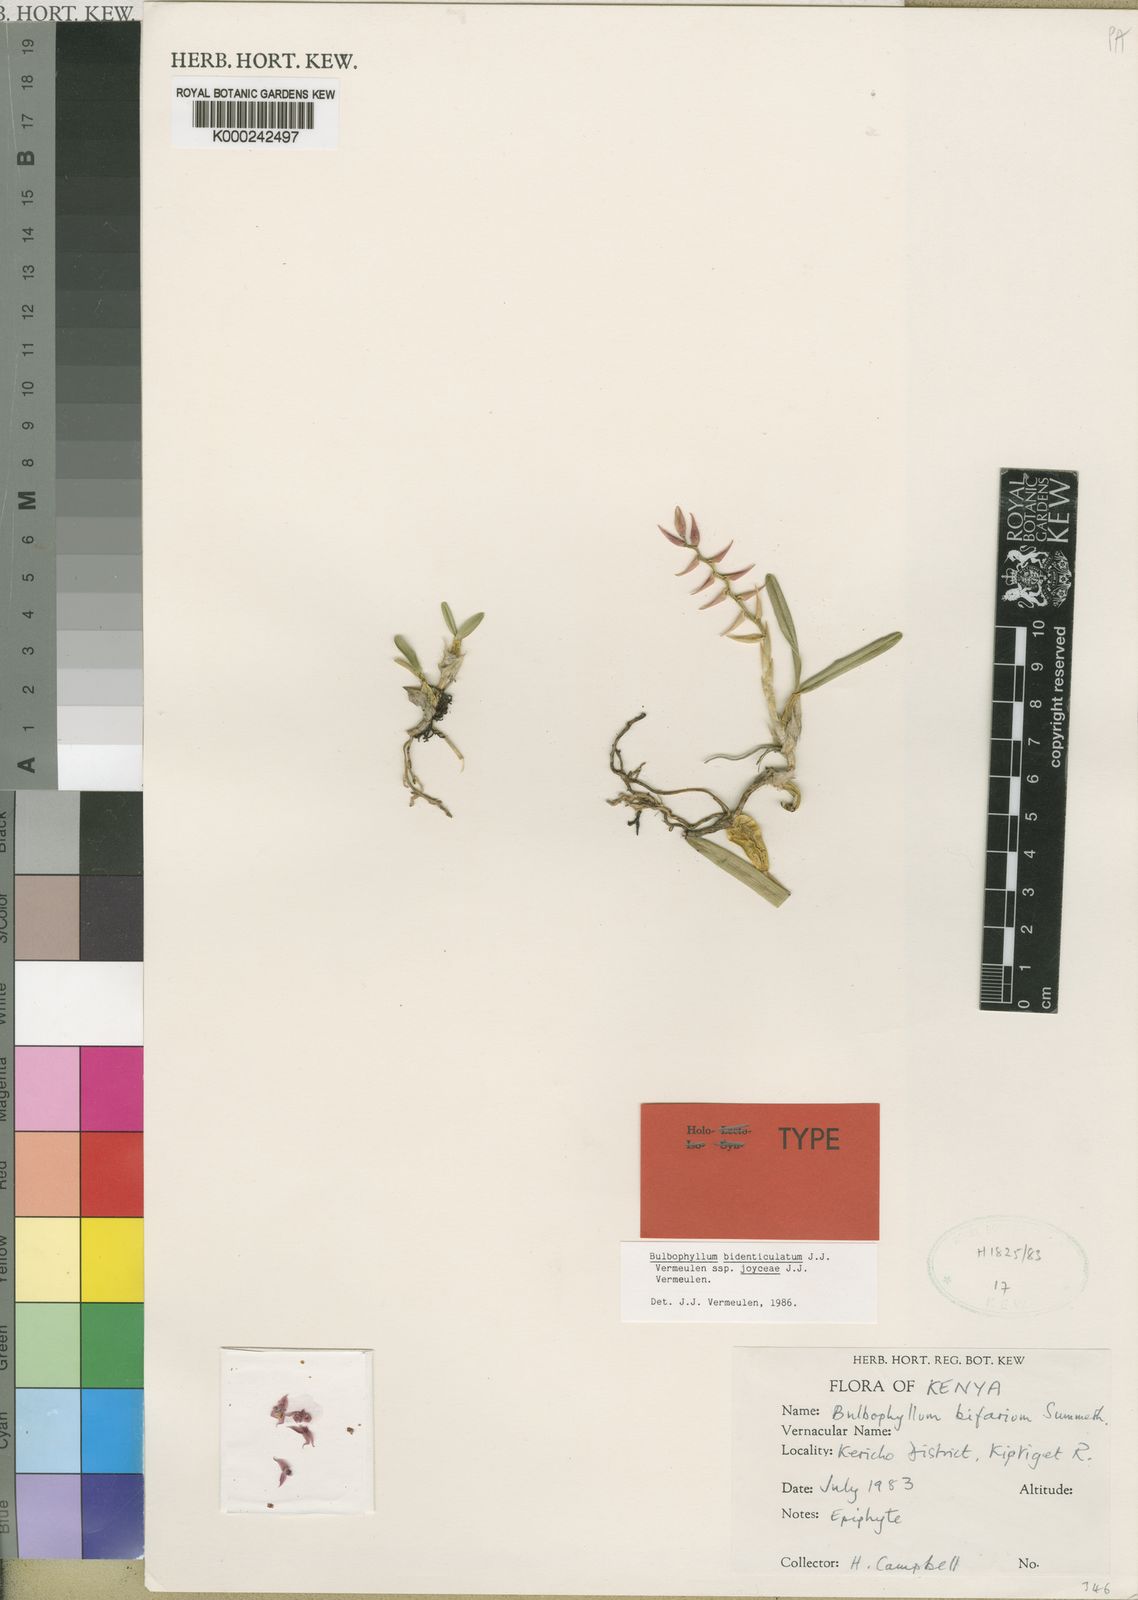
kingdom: Plantae
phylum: Tracheophyta
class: Liliopsida
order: Asparagales
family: Orchidaceae
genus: Bulbophyllum
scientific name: Bulbophyllum bidenticulatum
